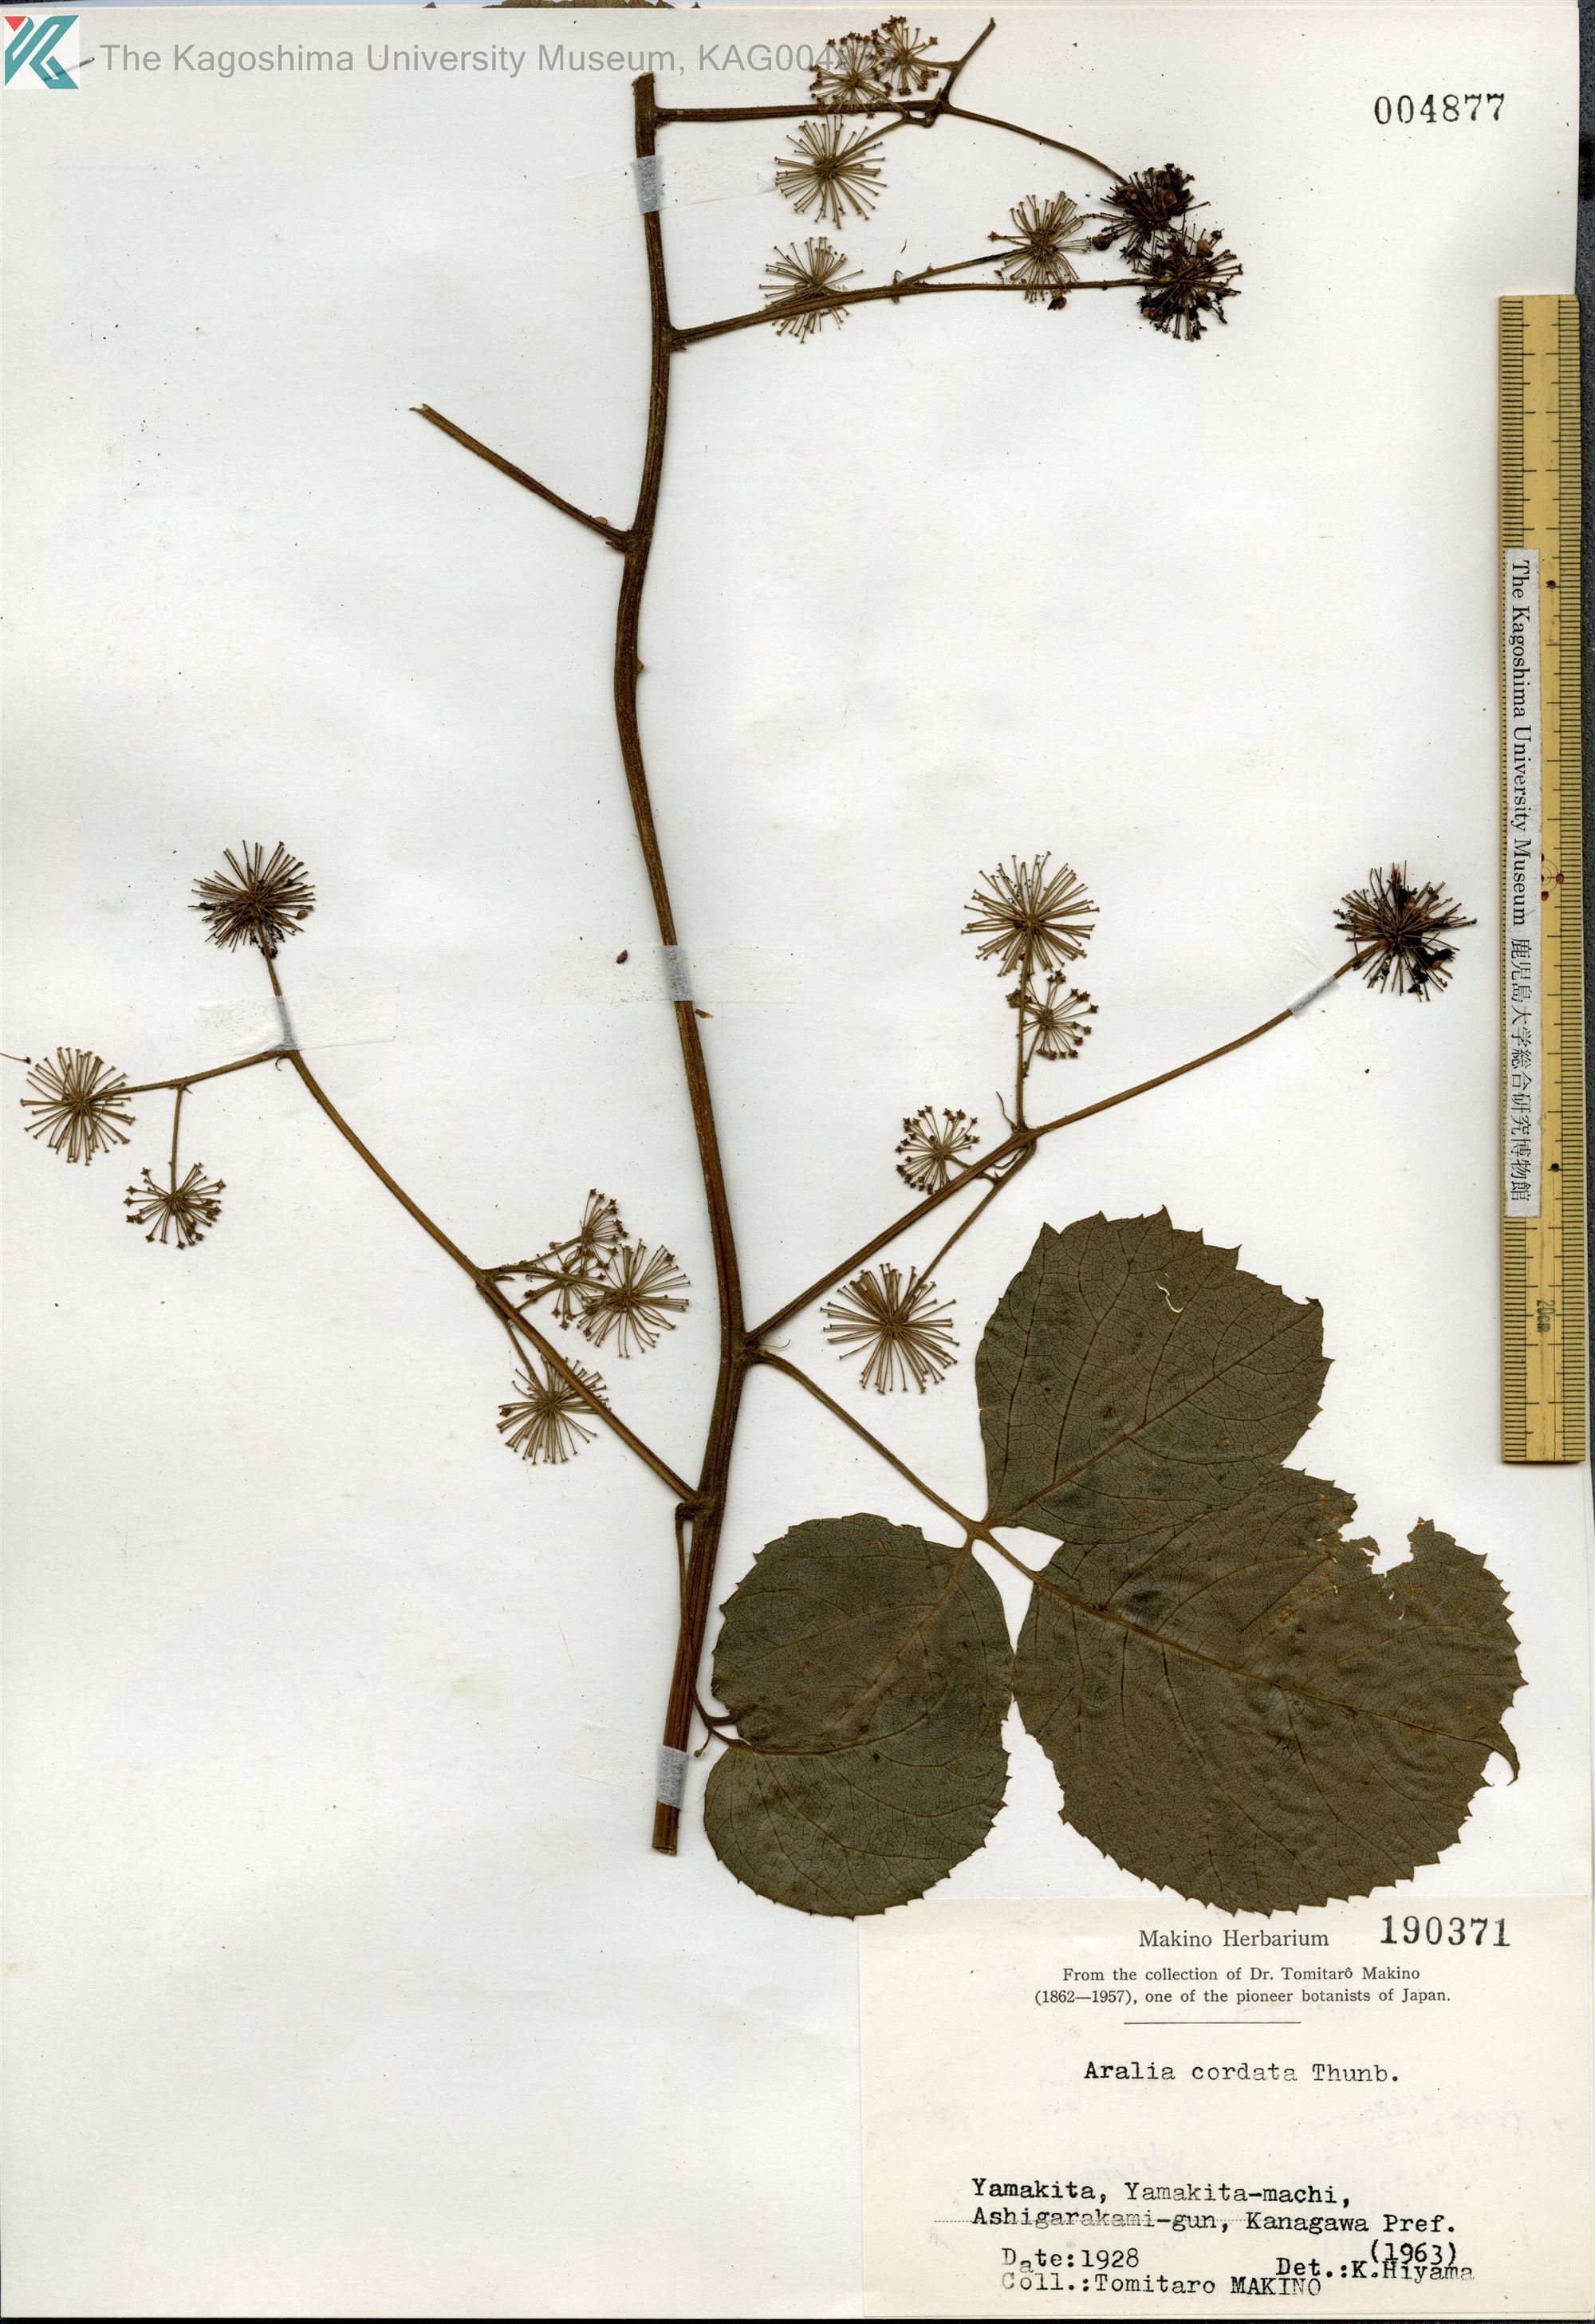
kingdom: Plantae
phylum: Tracheophyta
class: Magnoliopsida
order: Apiales
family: Araliaceae
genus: Aralia
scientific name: Aralia cordata
